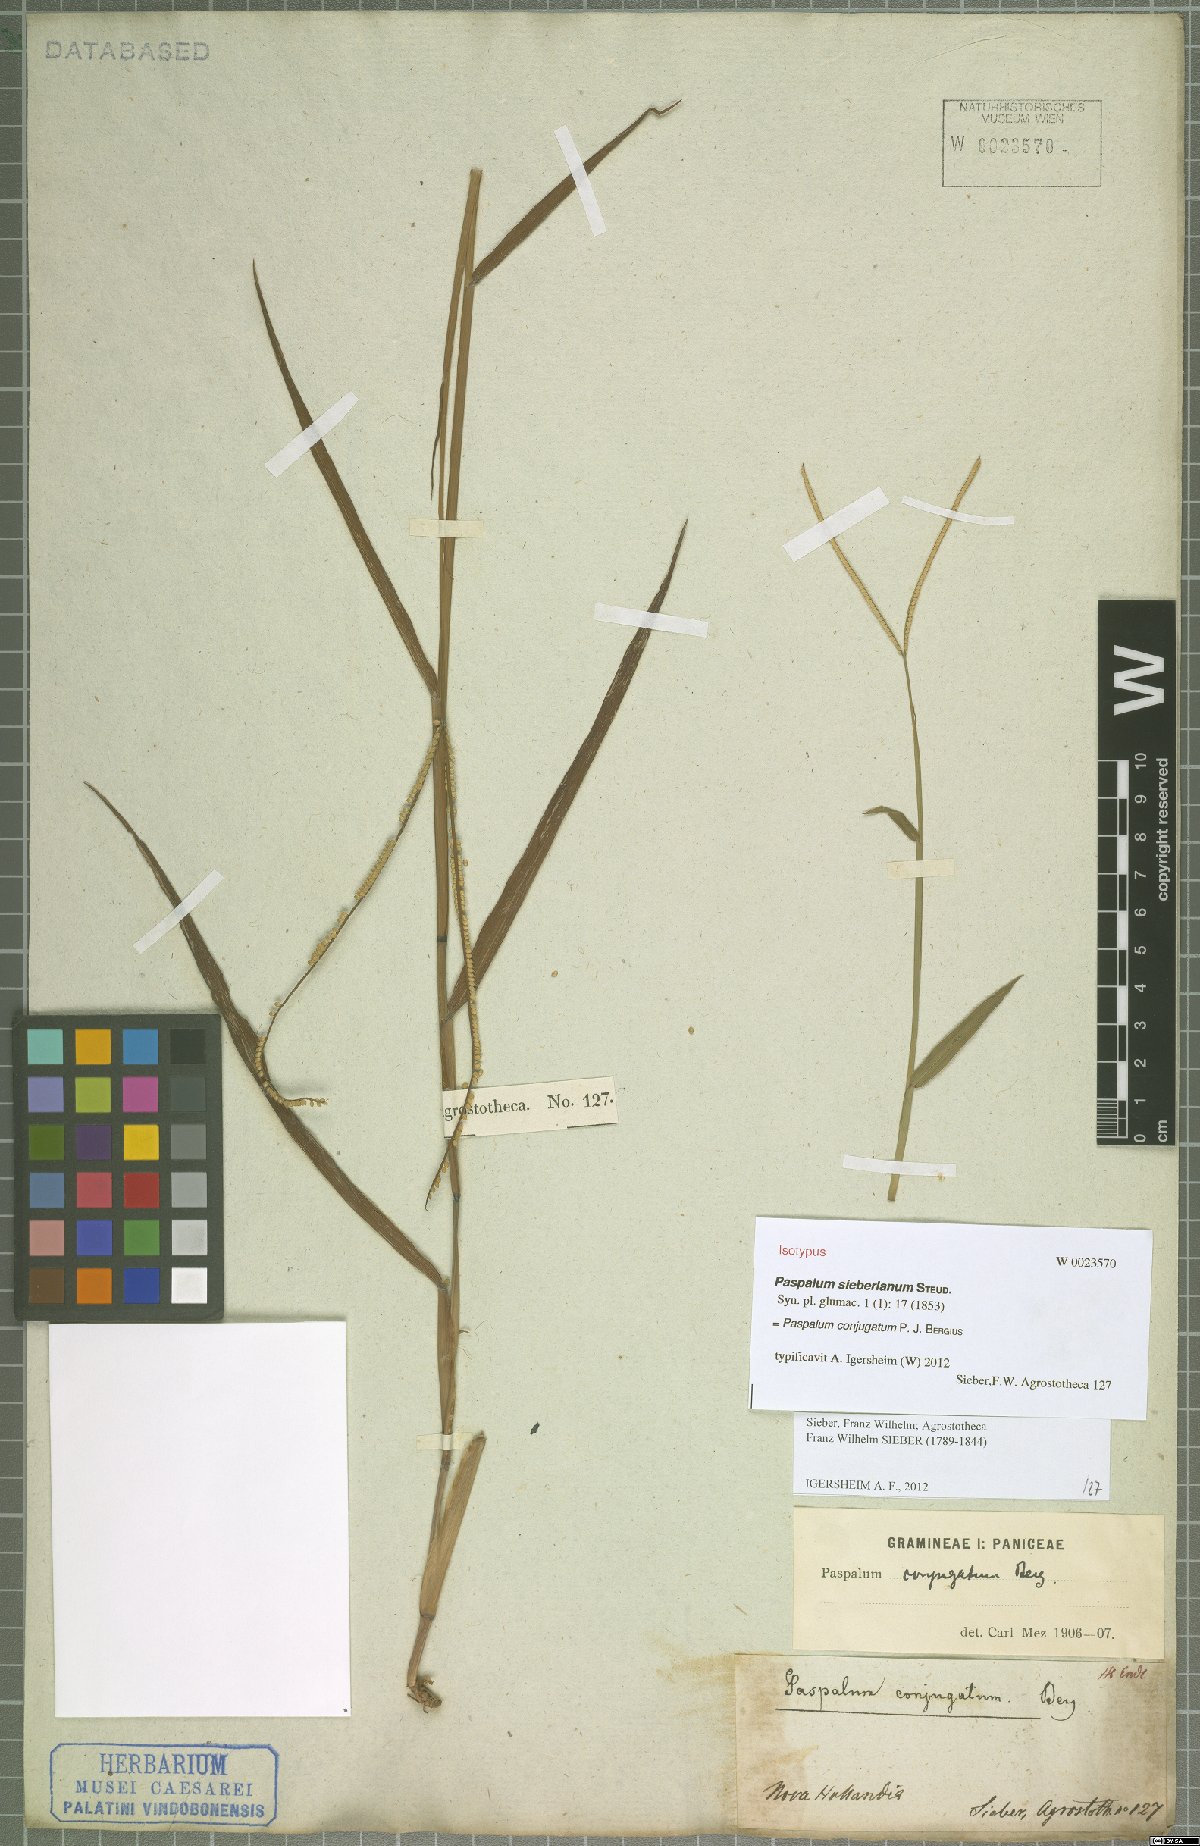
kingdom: Plantae
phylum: Tracheophyta
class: Liliopsida
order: Poales
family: Poaceae
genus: Paspalum
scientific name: Paspalum conjugatum
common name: Hilograss
